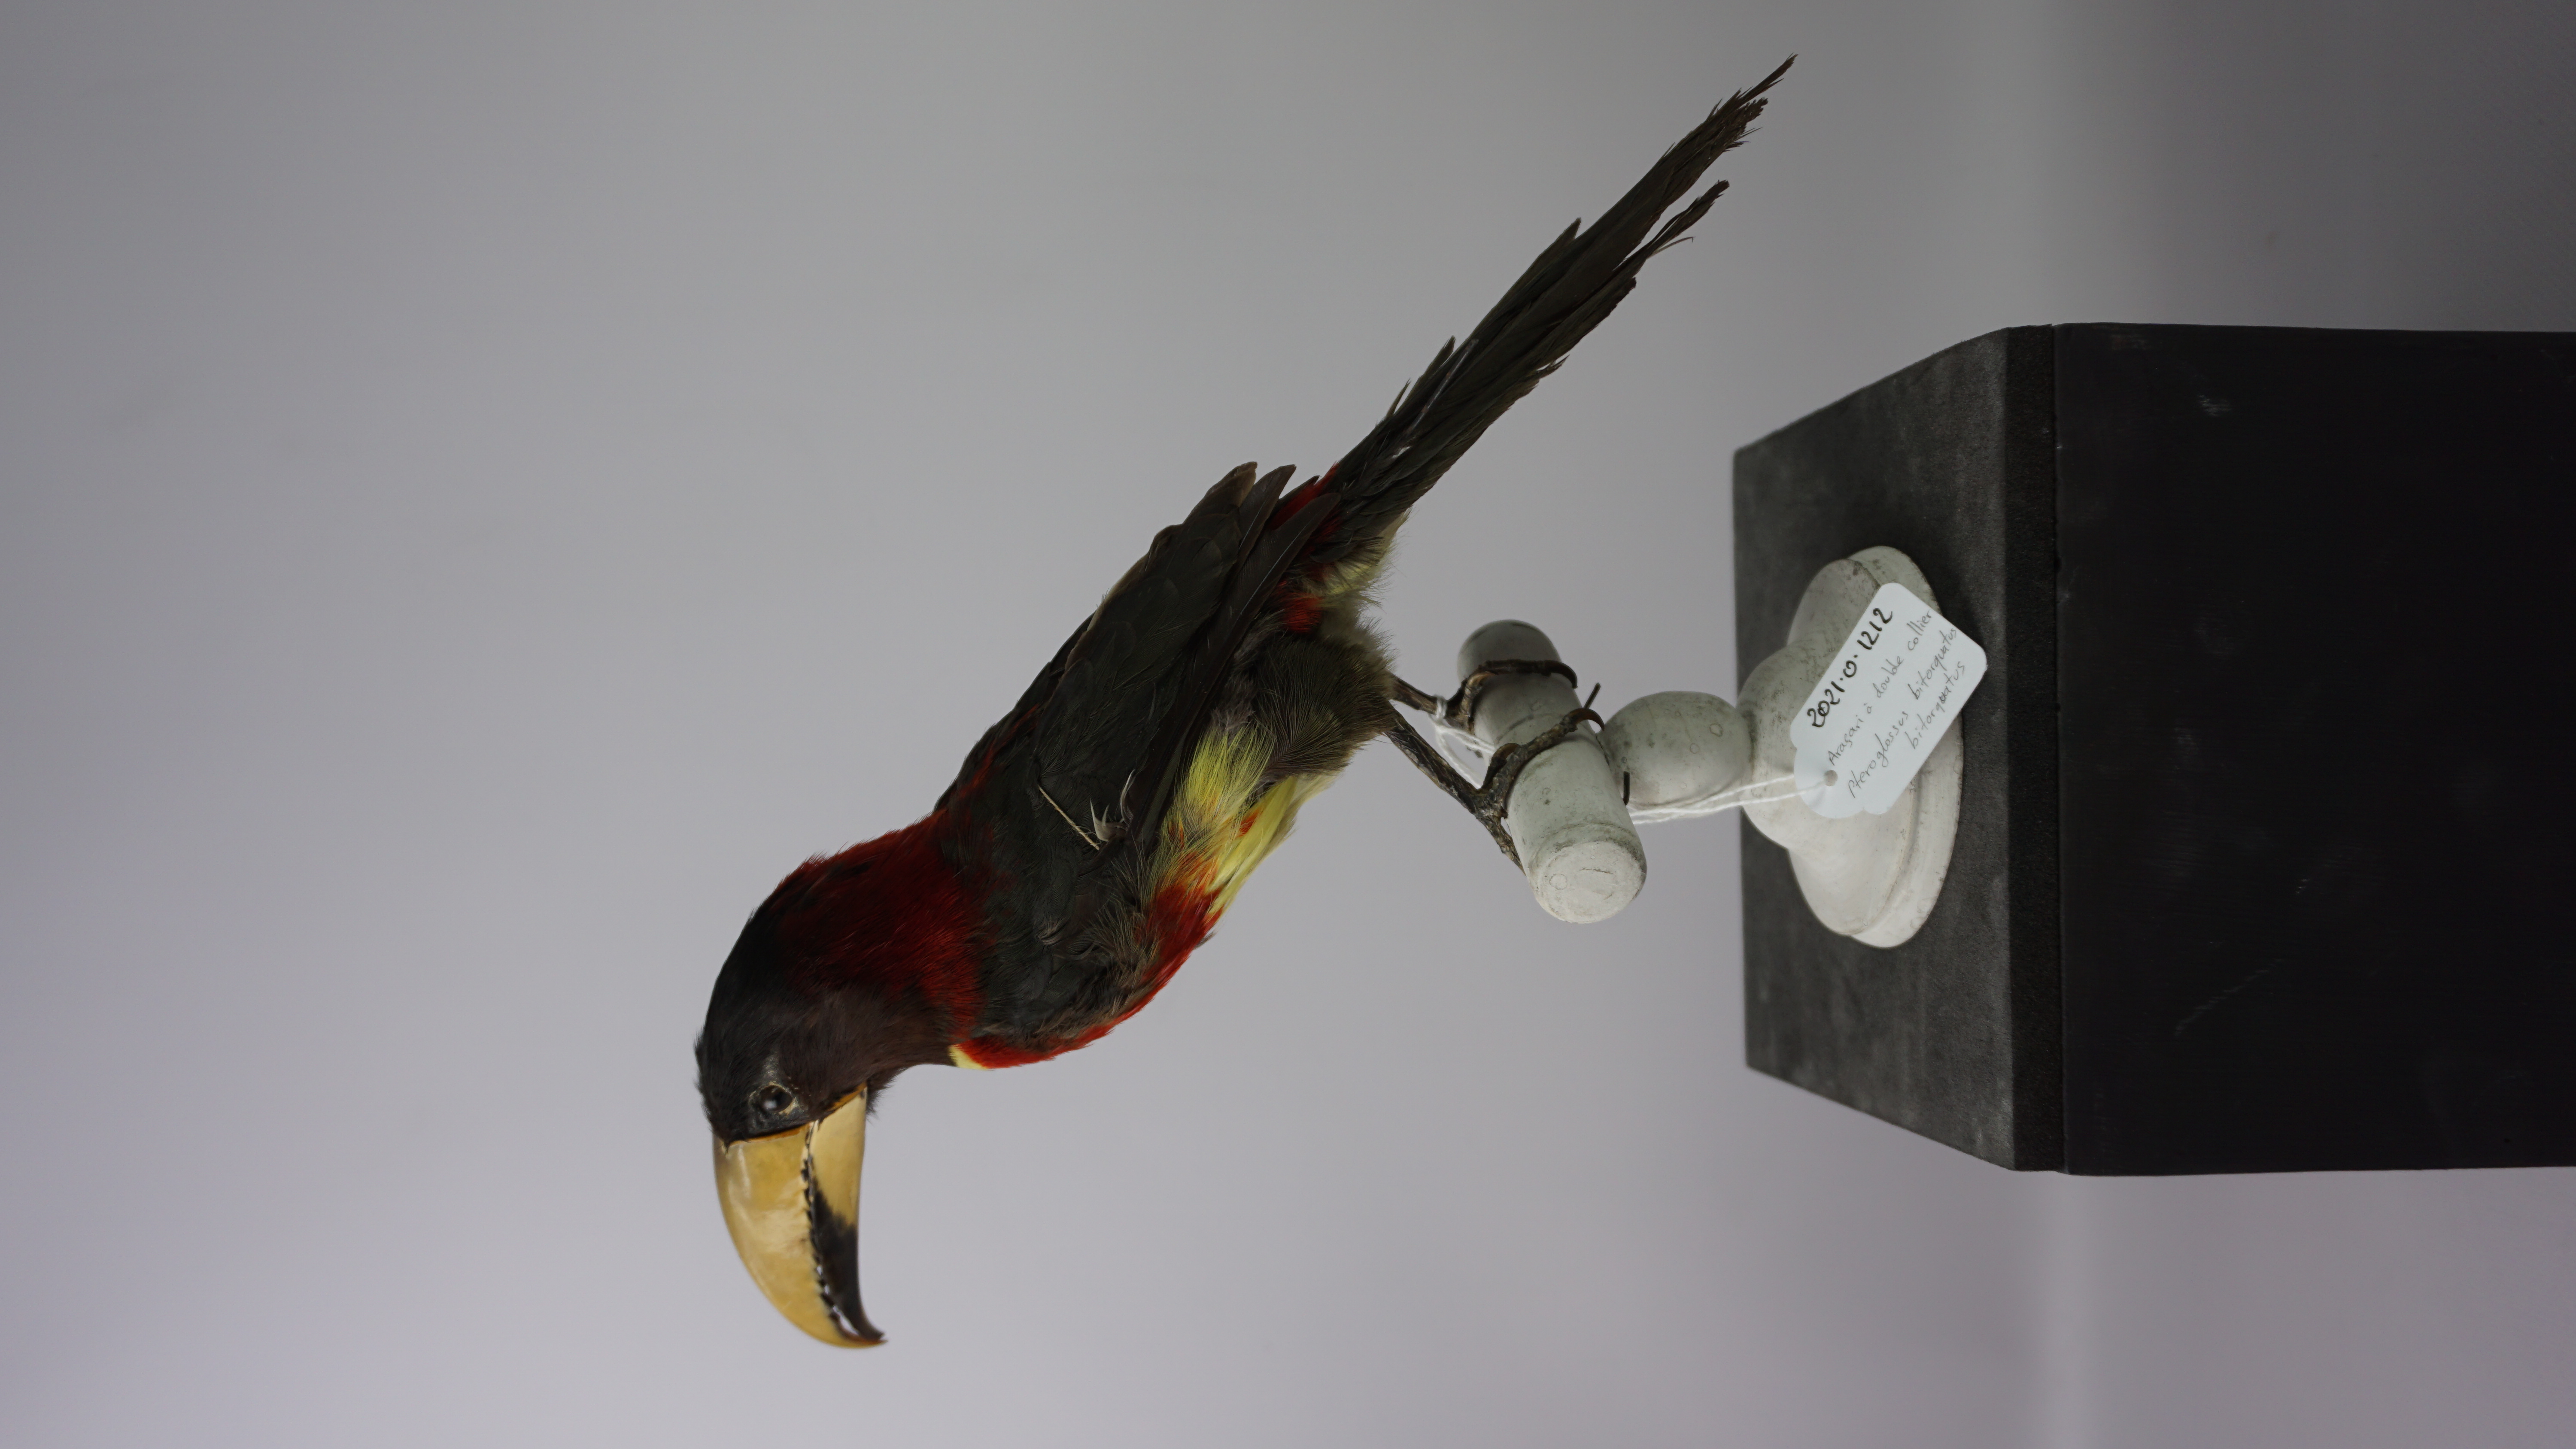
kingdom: Animalia
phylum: Chordata
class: Aves
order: Piciformes
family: Ramphastidae
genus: Pteroglossus
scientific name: Pteroglossus bitorquatus
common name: Red-necked aracari
